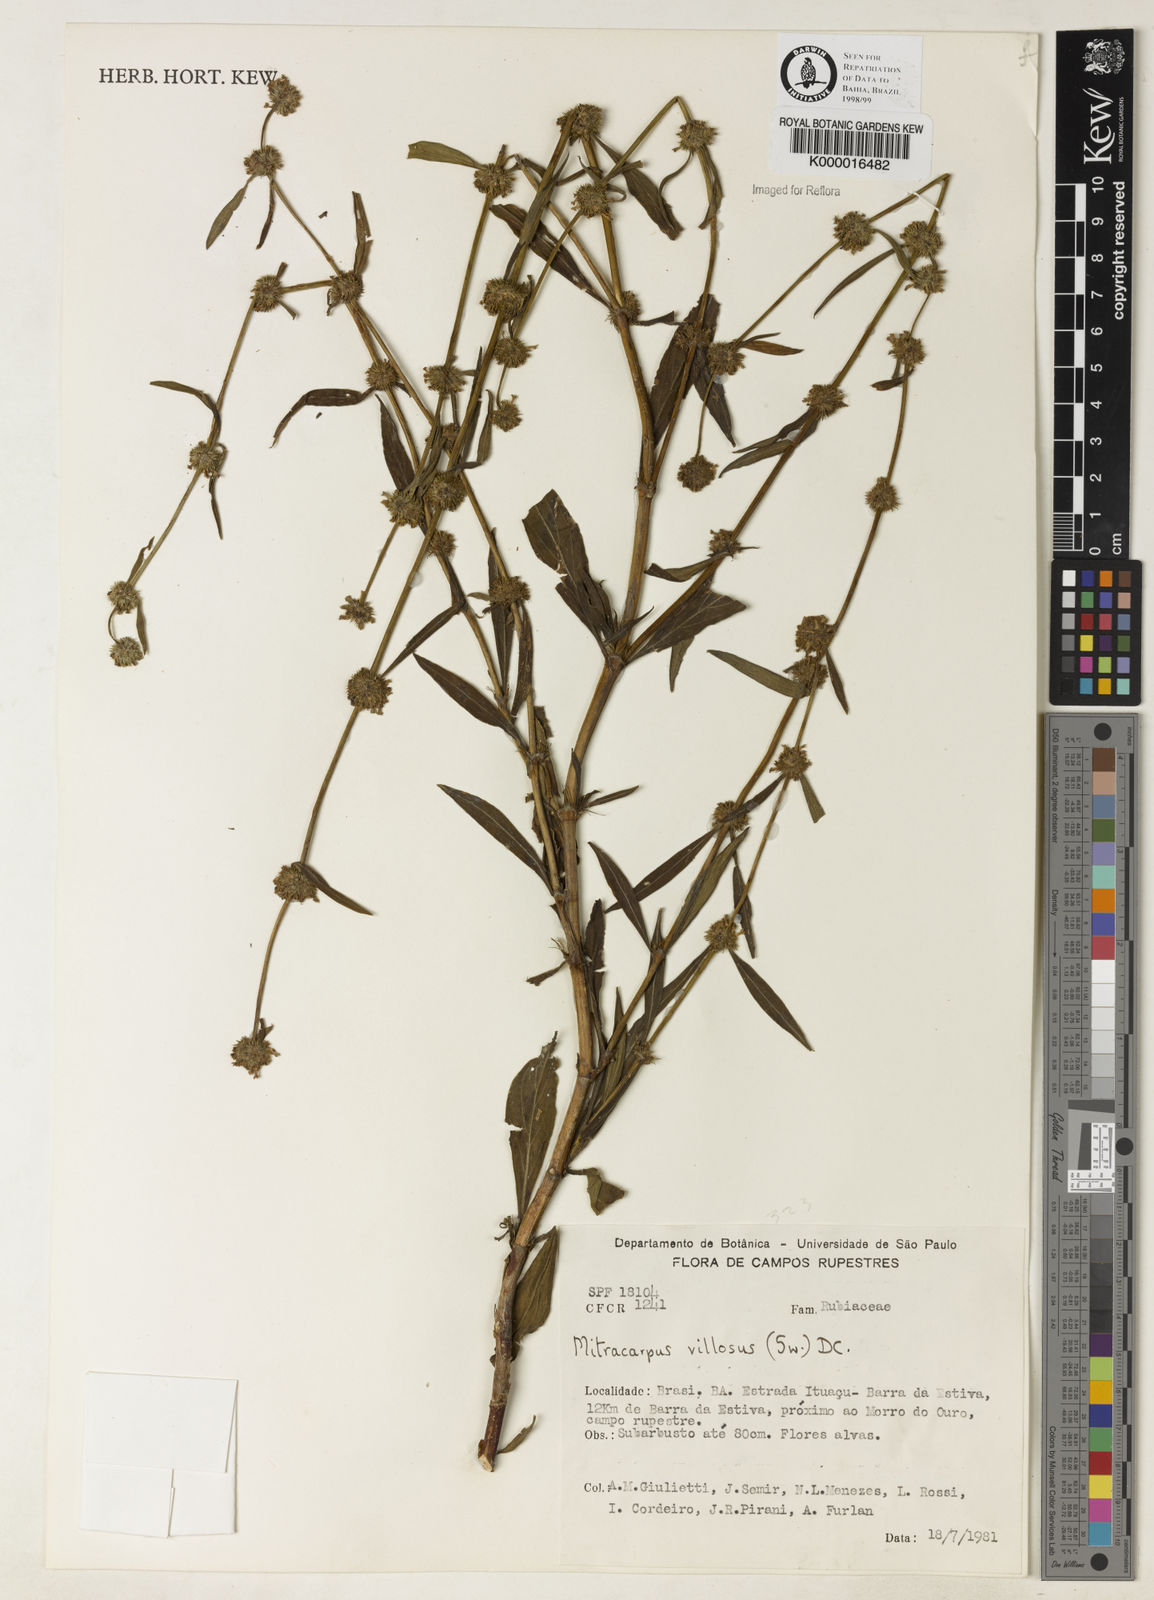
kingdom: Plantae
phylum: Tracheophyta
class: Magnoliopsida
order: Gentianales
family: Rubiaceae
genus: Mitracarpus
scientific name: Mitracarpus
